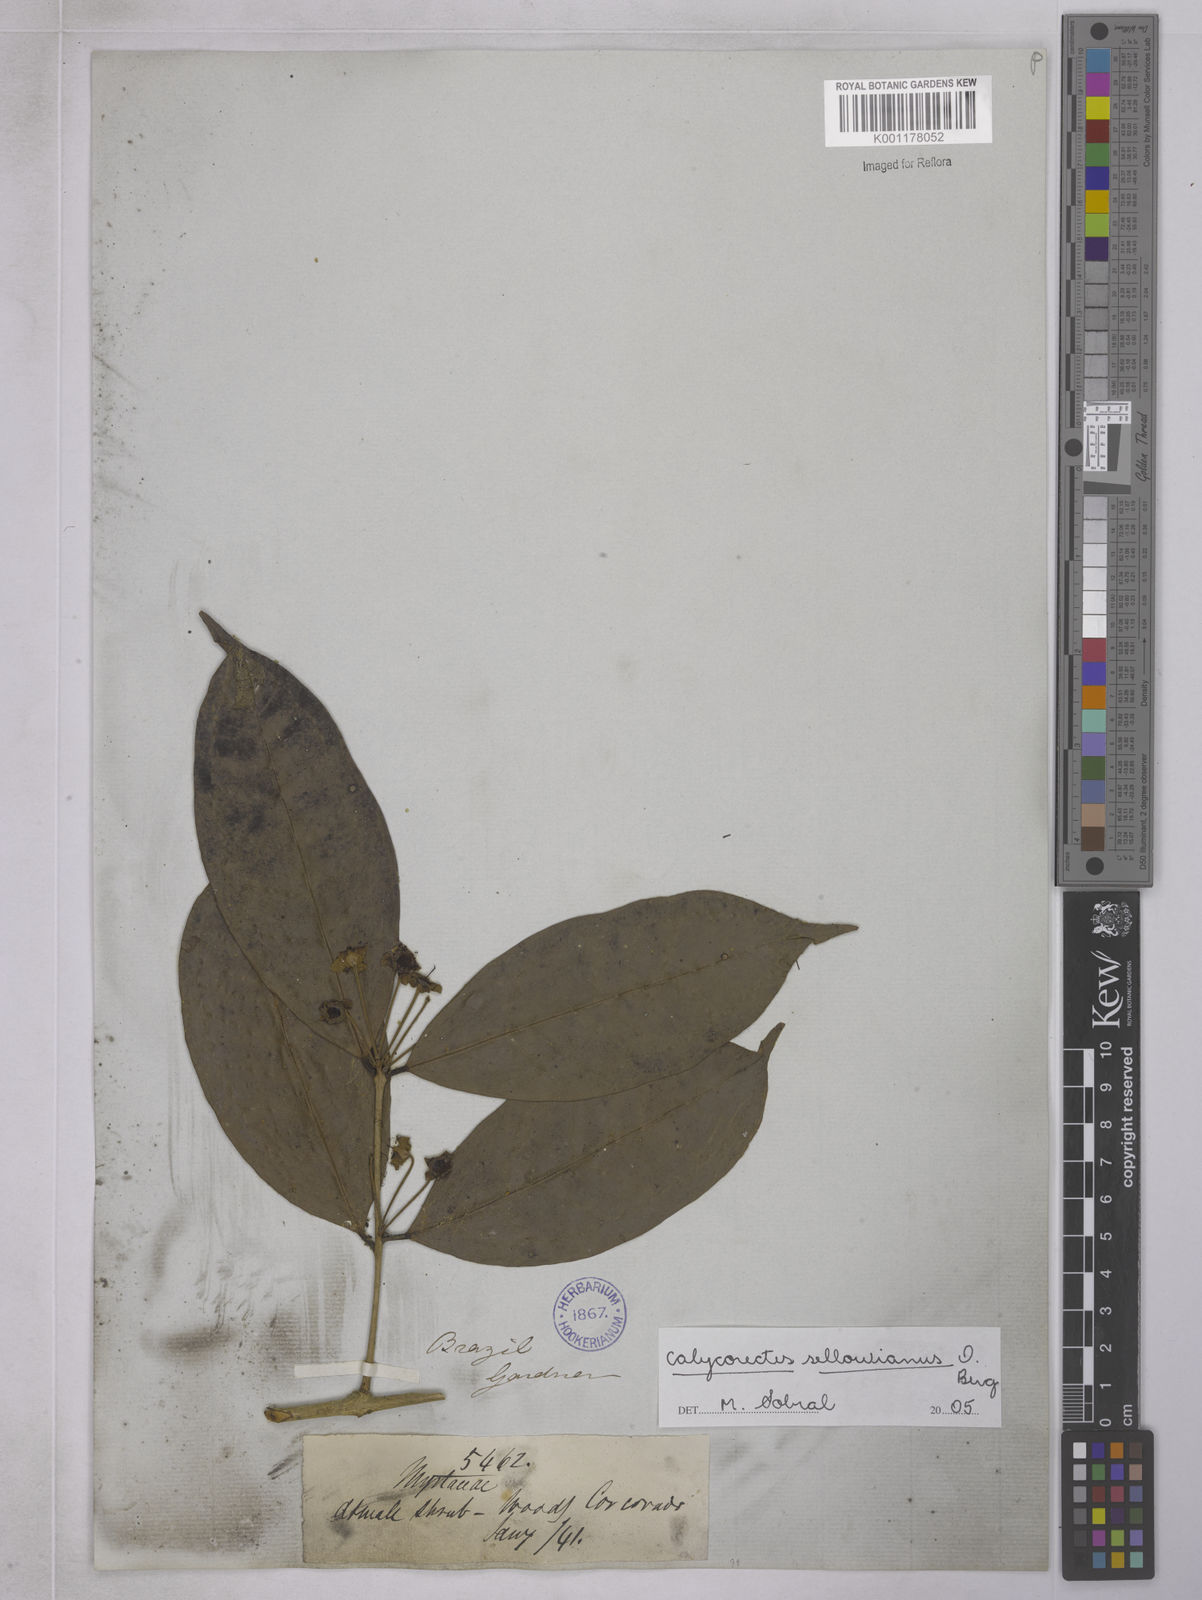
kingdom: Plantae
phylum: Tracheophyta
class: Magnoliopsida
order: Myrtales
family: Myrtaceae
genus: Eugenia
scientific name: Eugenia brevistyla
